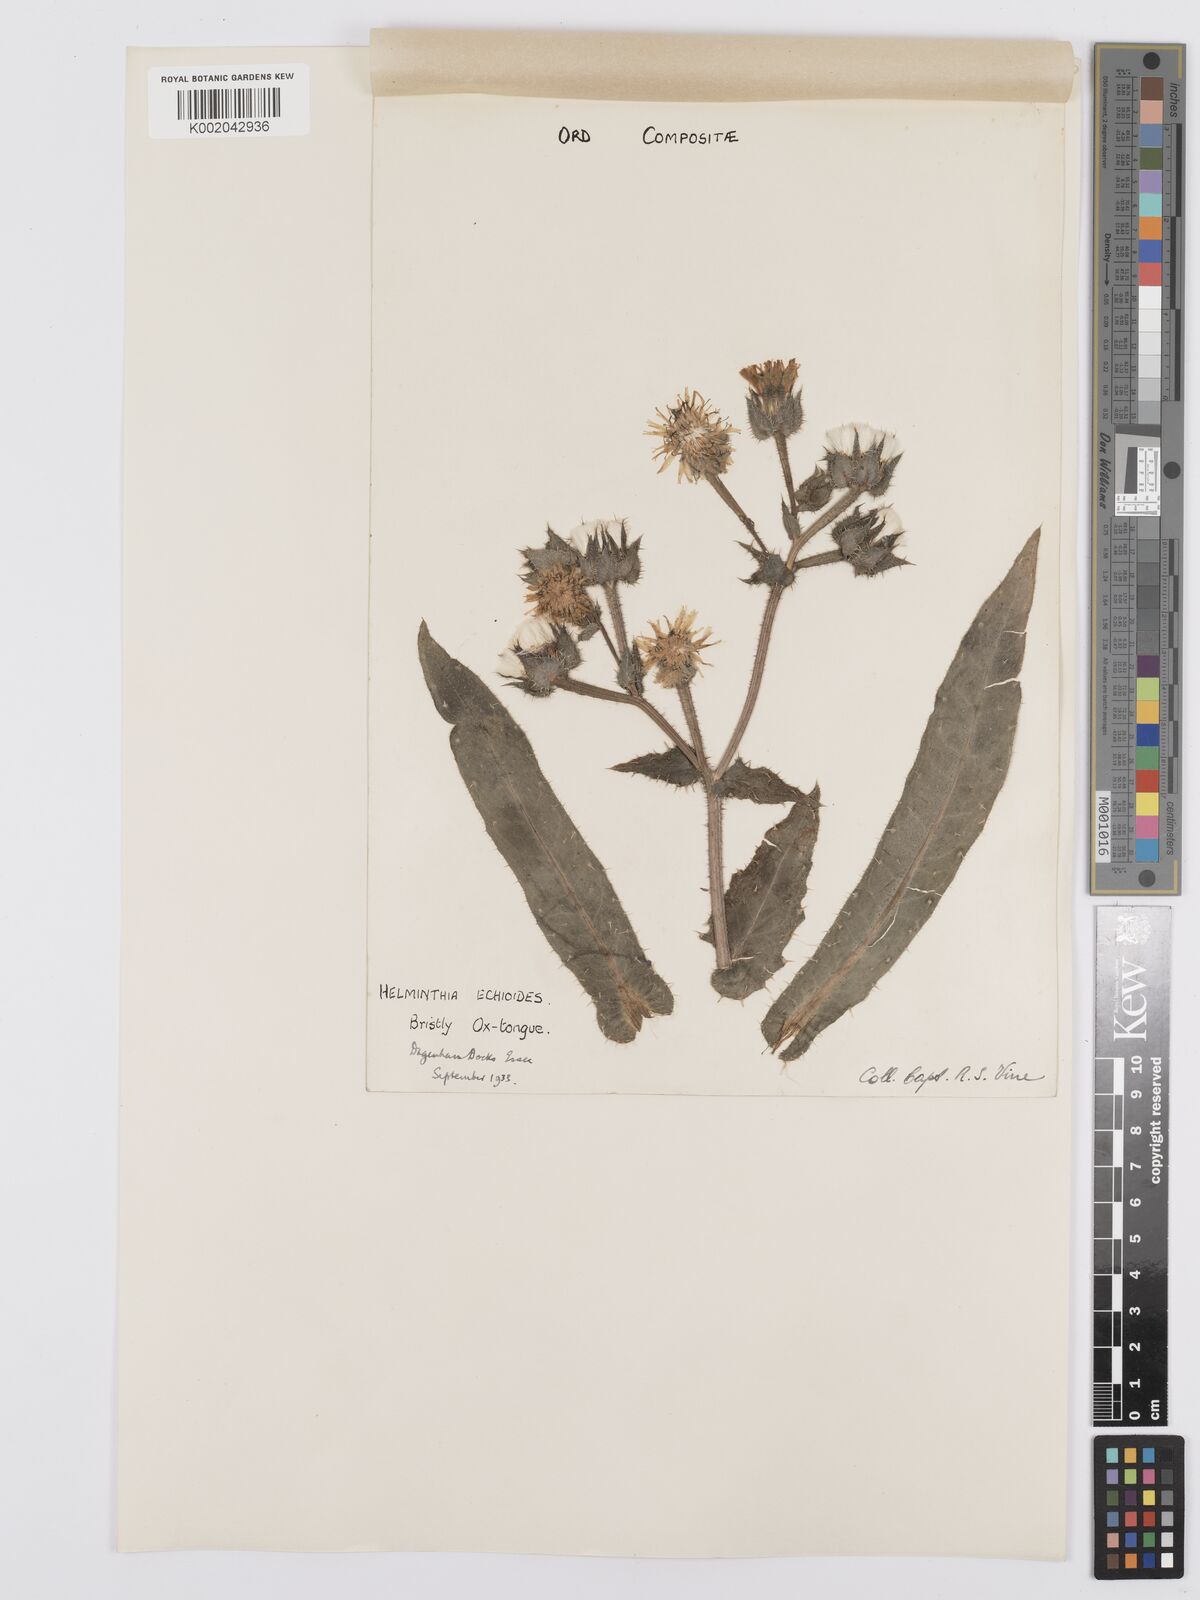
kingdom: Plantae
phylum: Tracheophyta
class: Magnoliopsida
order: Asterales
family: Asteraceae
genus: Helminthotheca
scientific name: Helminthotheca echioides
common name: Ox-tongue
